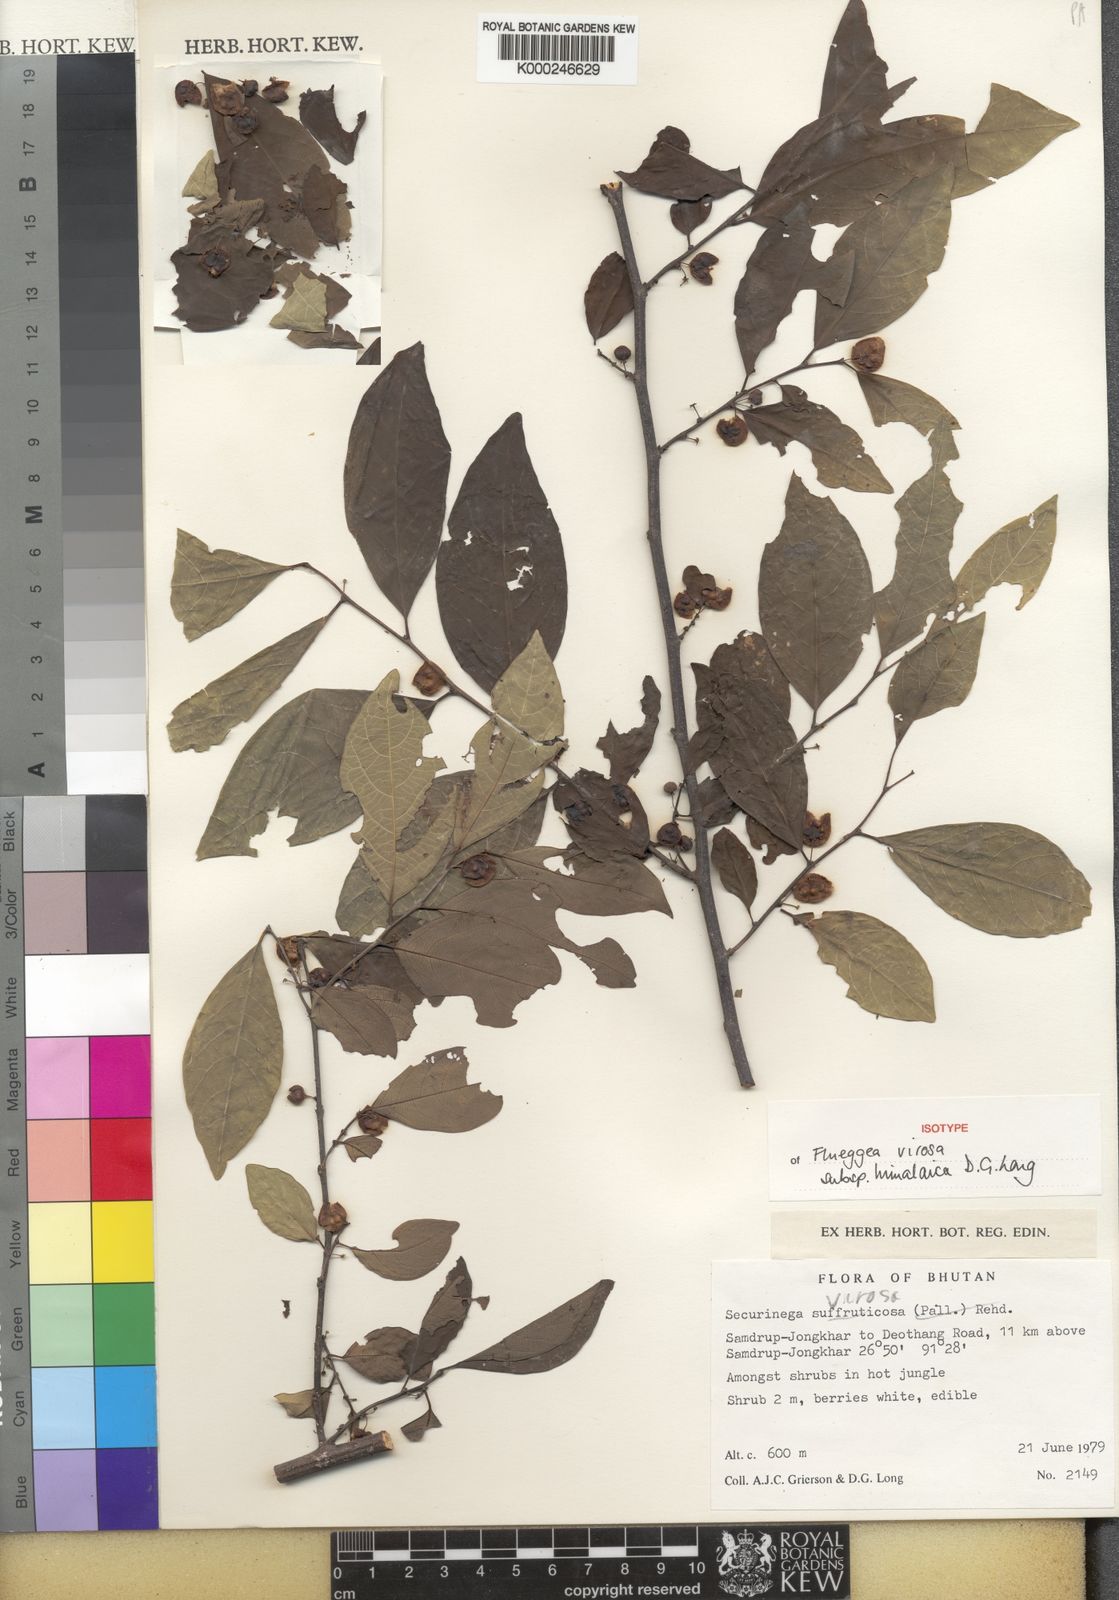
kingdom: Plantae
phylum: Tracheophyta
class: Magnoliopsida
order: Malpighiales
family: Phyllanthaceae
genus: Flueggea
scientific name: Flueggea virosa
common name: Common bushweed
